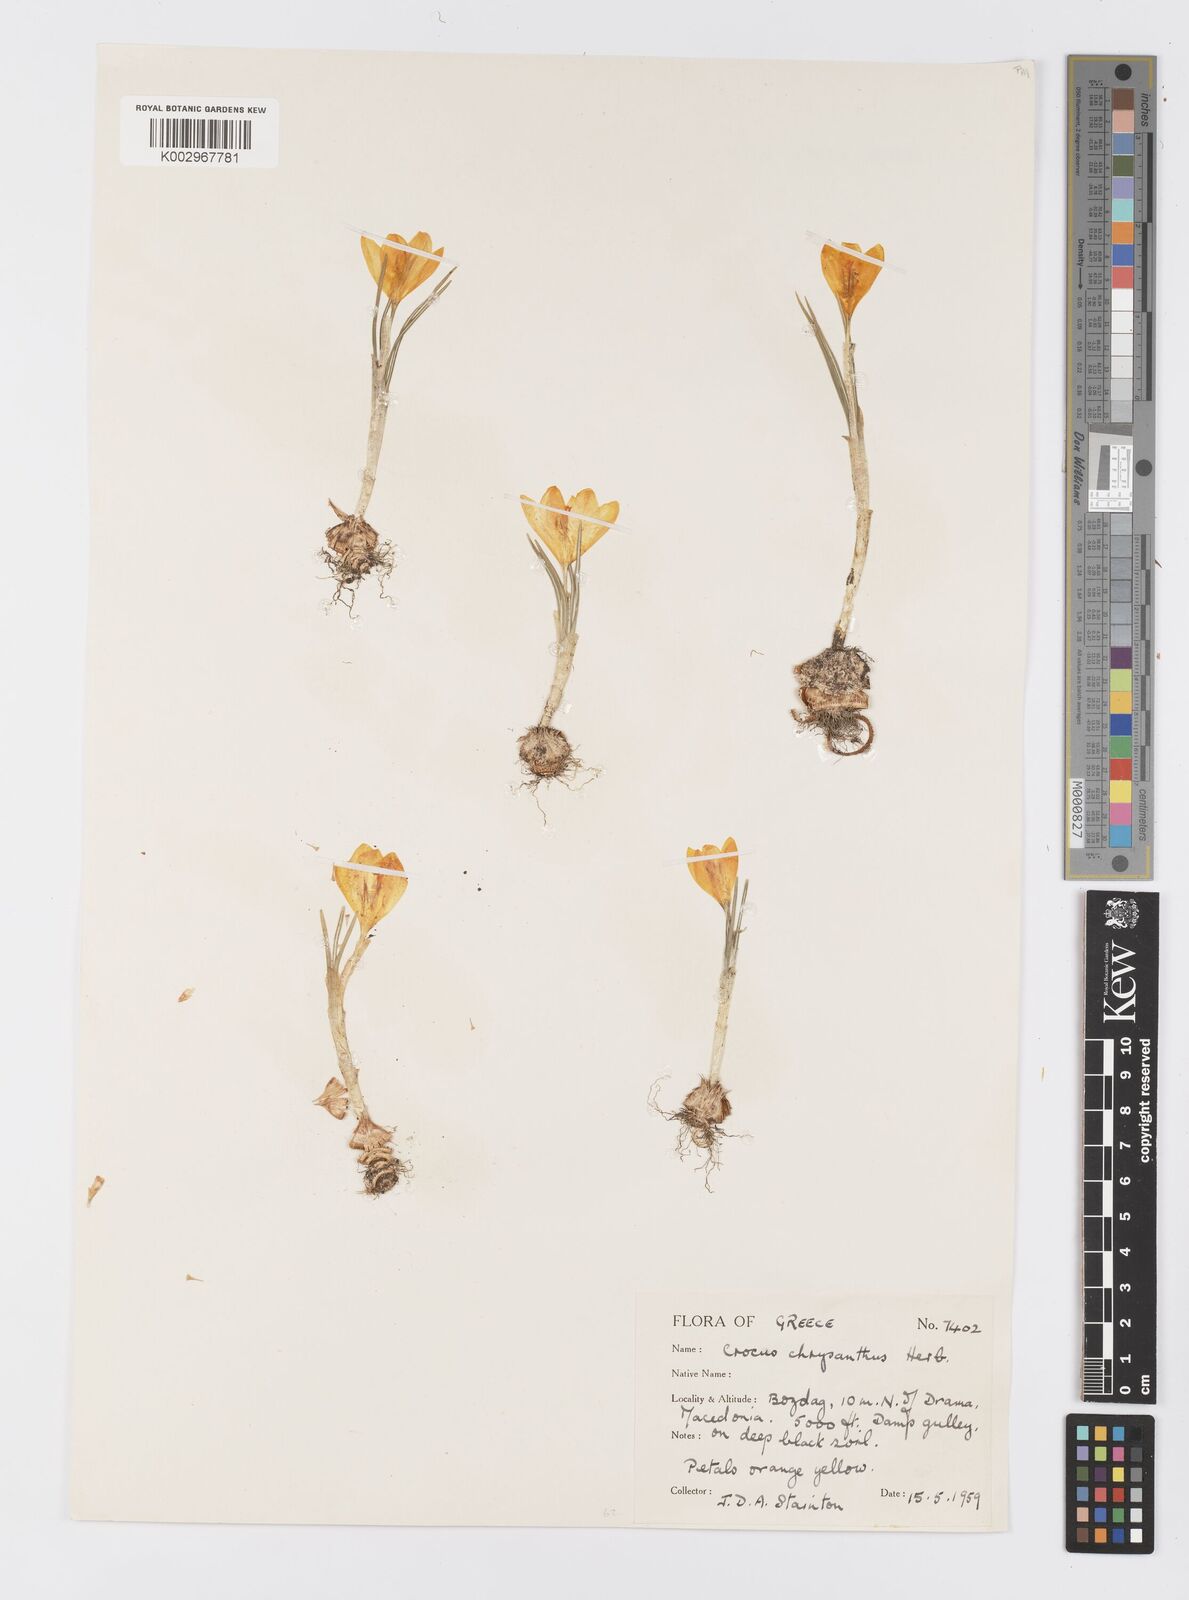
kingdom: Plantae
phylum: Tracheophyta
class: Liliopsida
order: Asparagales
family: Iridaceae
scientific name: Iridaceae
